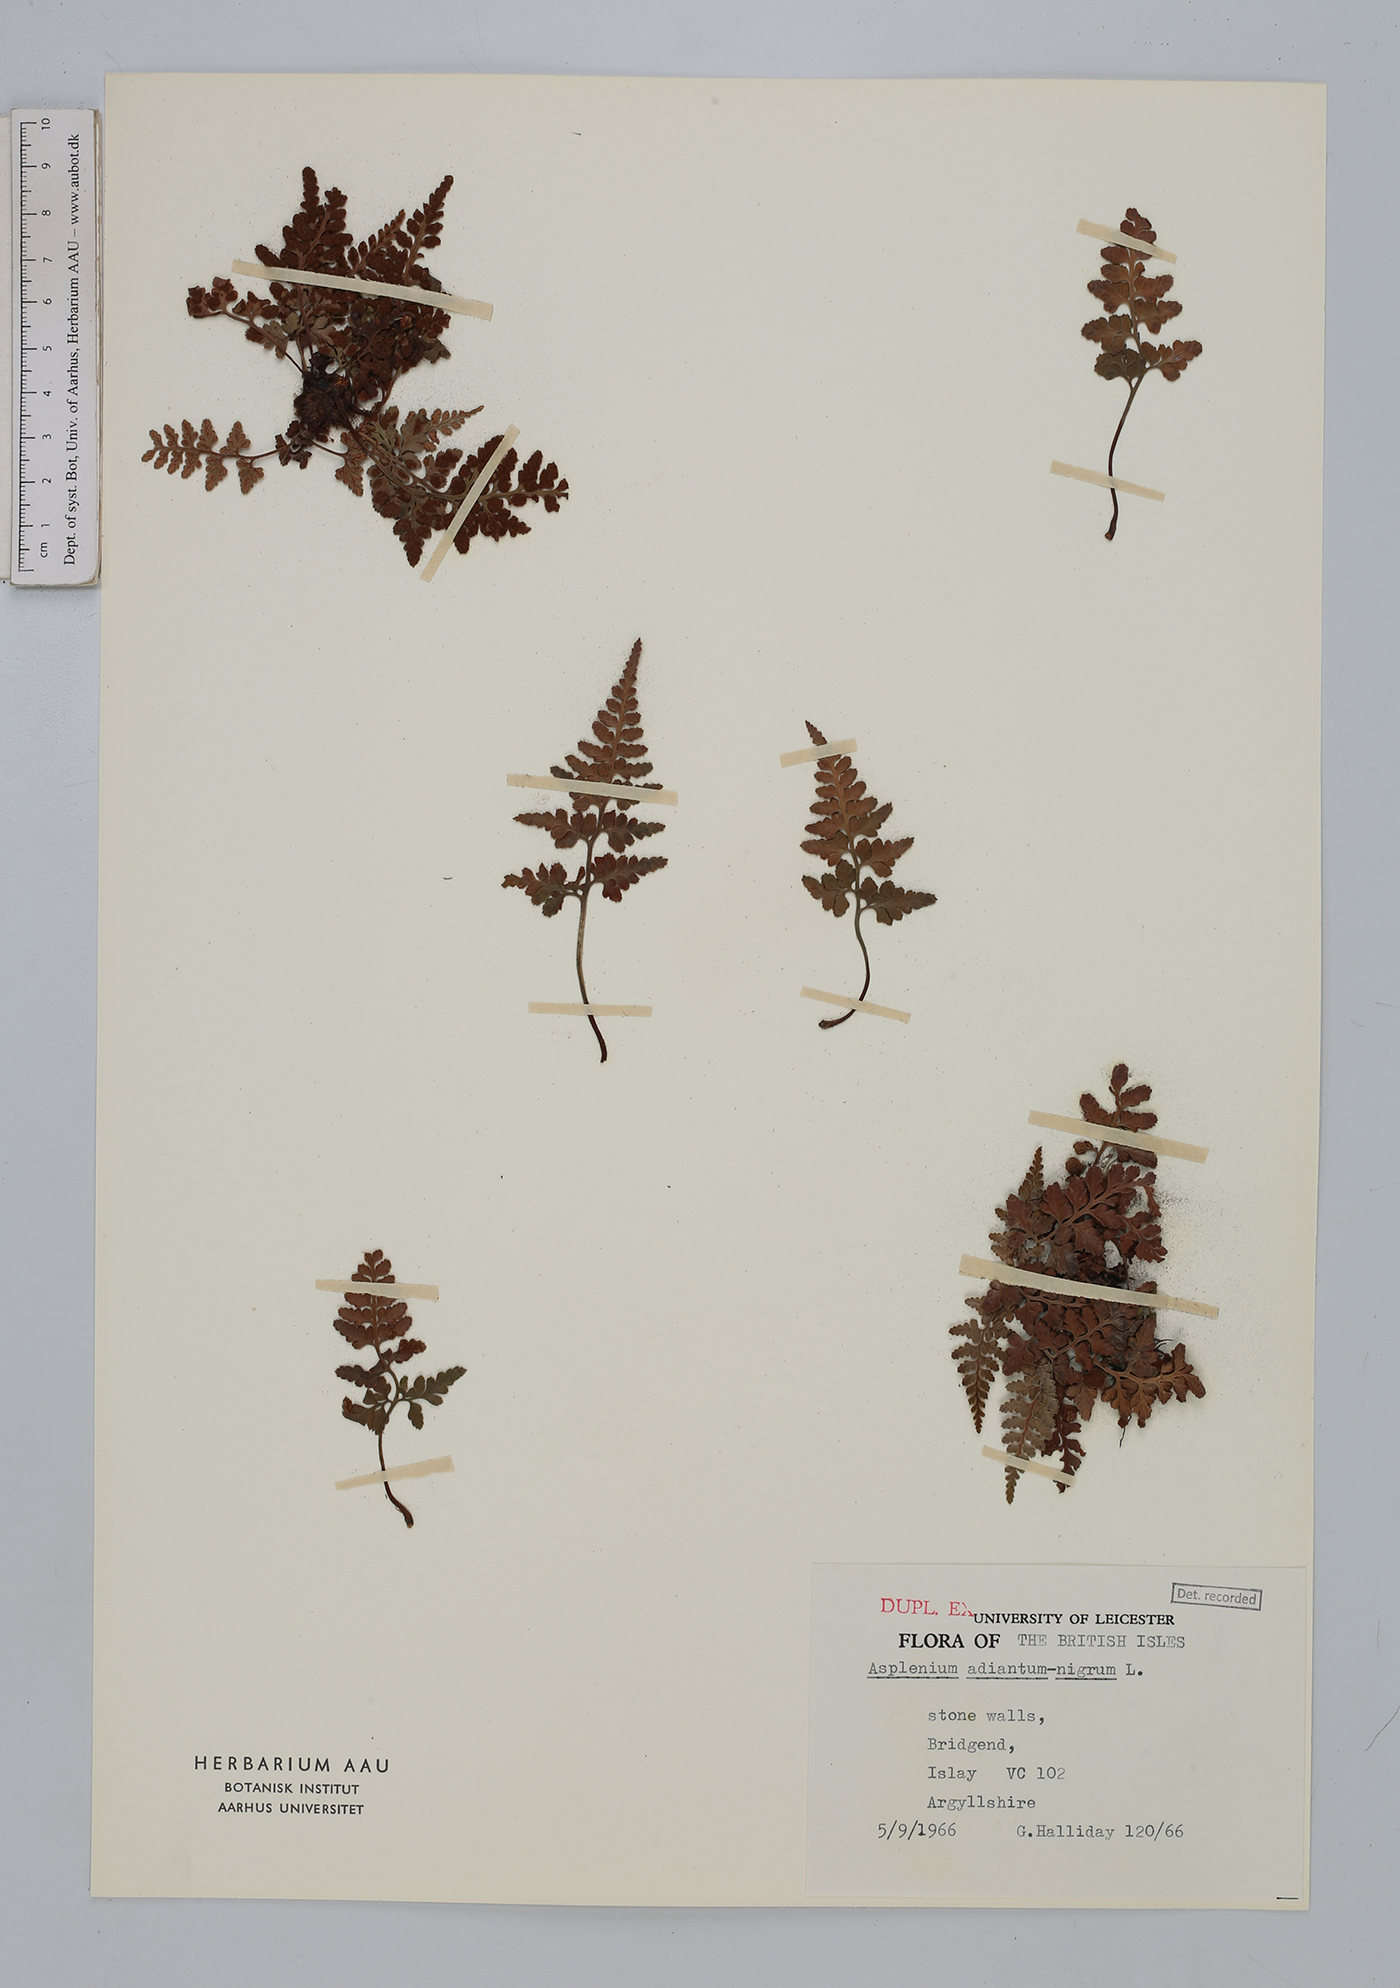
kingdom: Plantae
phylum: Tracheophyta
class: Polypodiopsida
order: Polypodiales
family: Aspleniaceae
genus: Asplenium
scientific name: Asplenium adiantum-nigrum
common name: Black spleenwort
